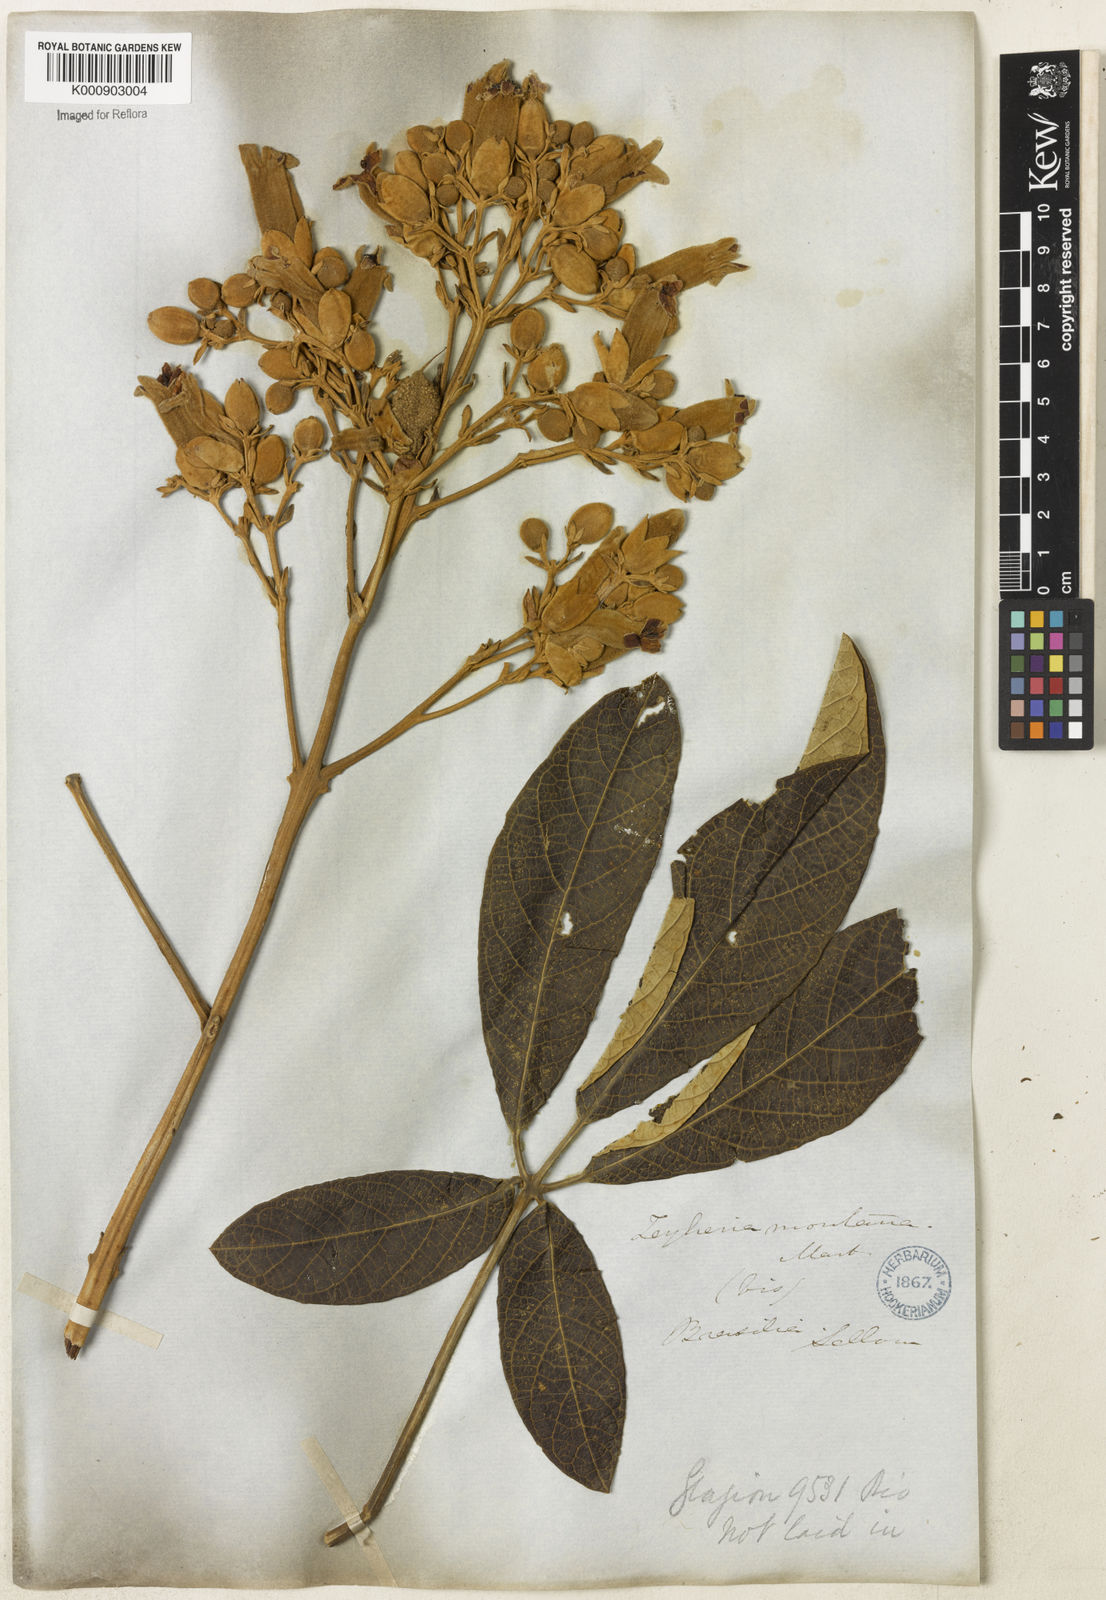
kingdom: Plantae
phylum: Tracheophyta
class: Magnoliopsida
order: Lamiales
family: Bignoniaceae
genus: Zeyheria
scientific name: Zeyheria montana
